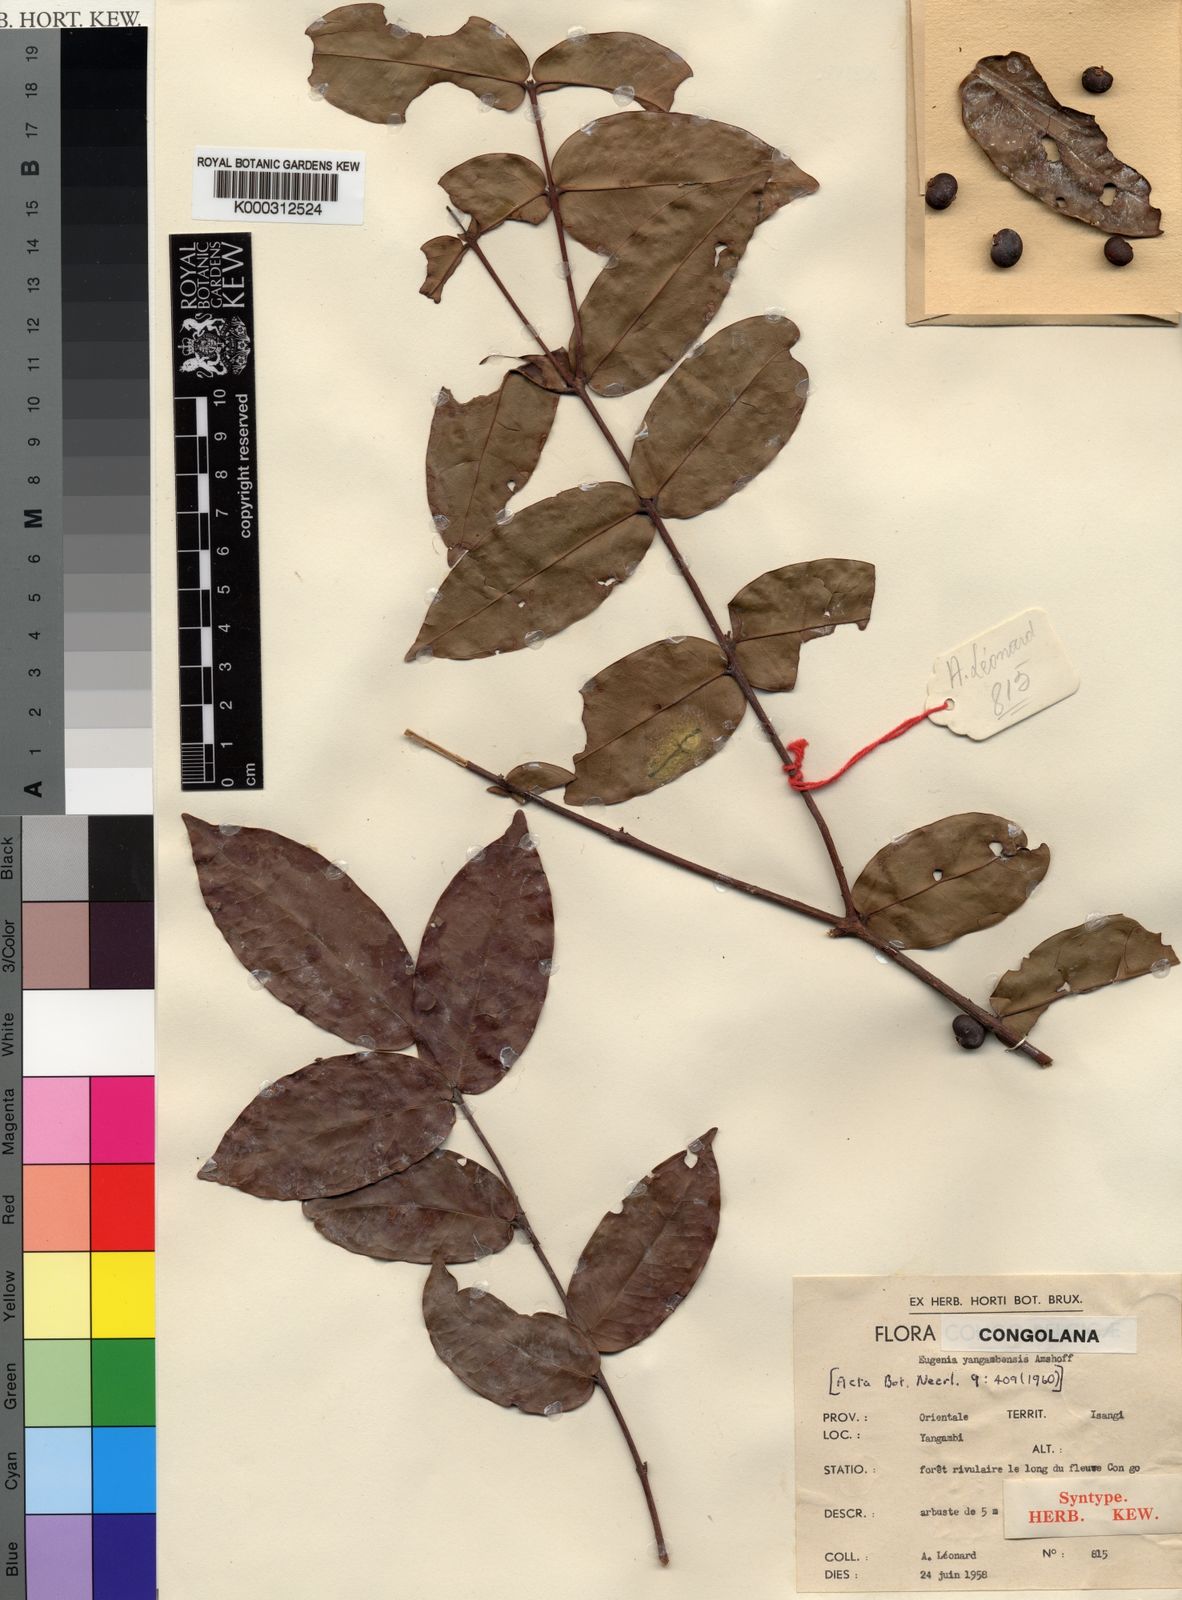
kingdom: Plantae
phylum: Tracheophyta
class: Magnoliopsida
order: Myrtales
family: Myrtaceae
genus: Eugenia
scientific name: Eugenia yangambensis
